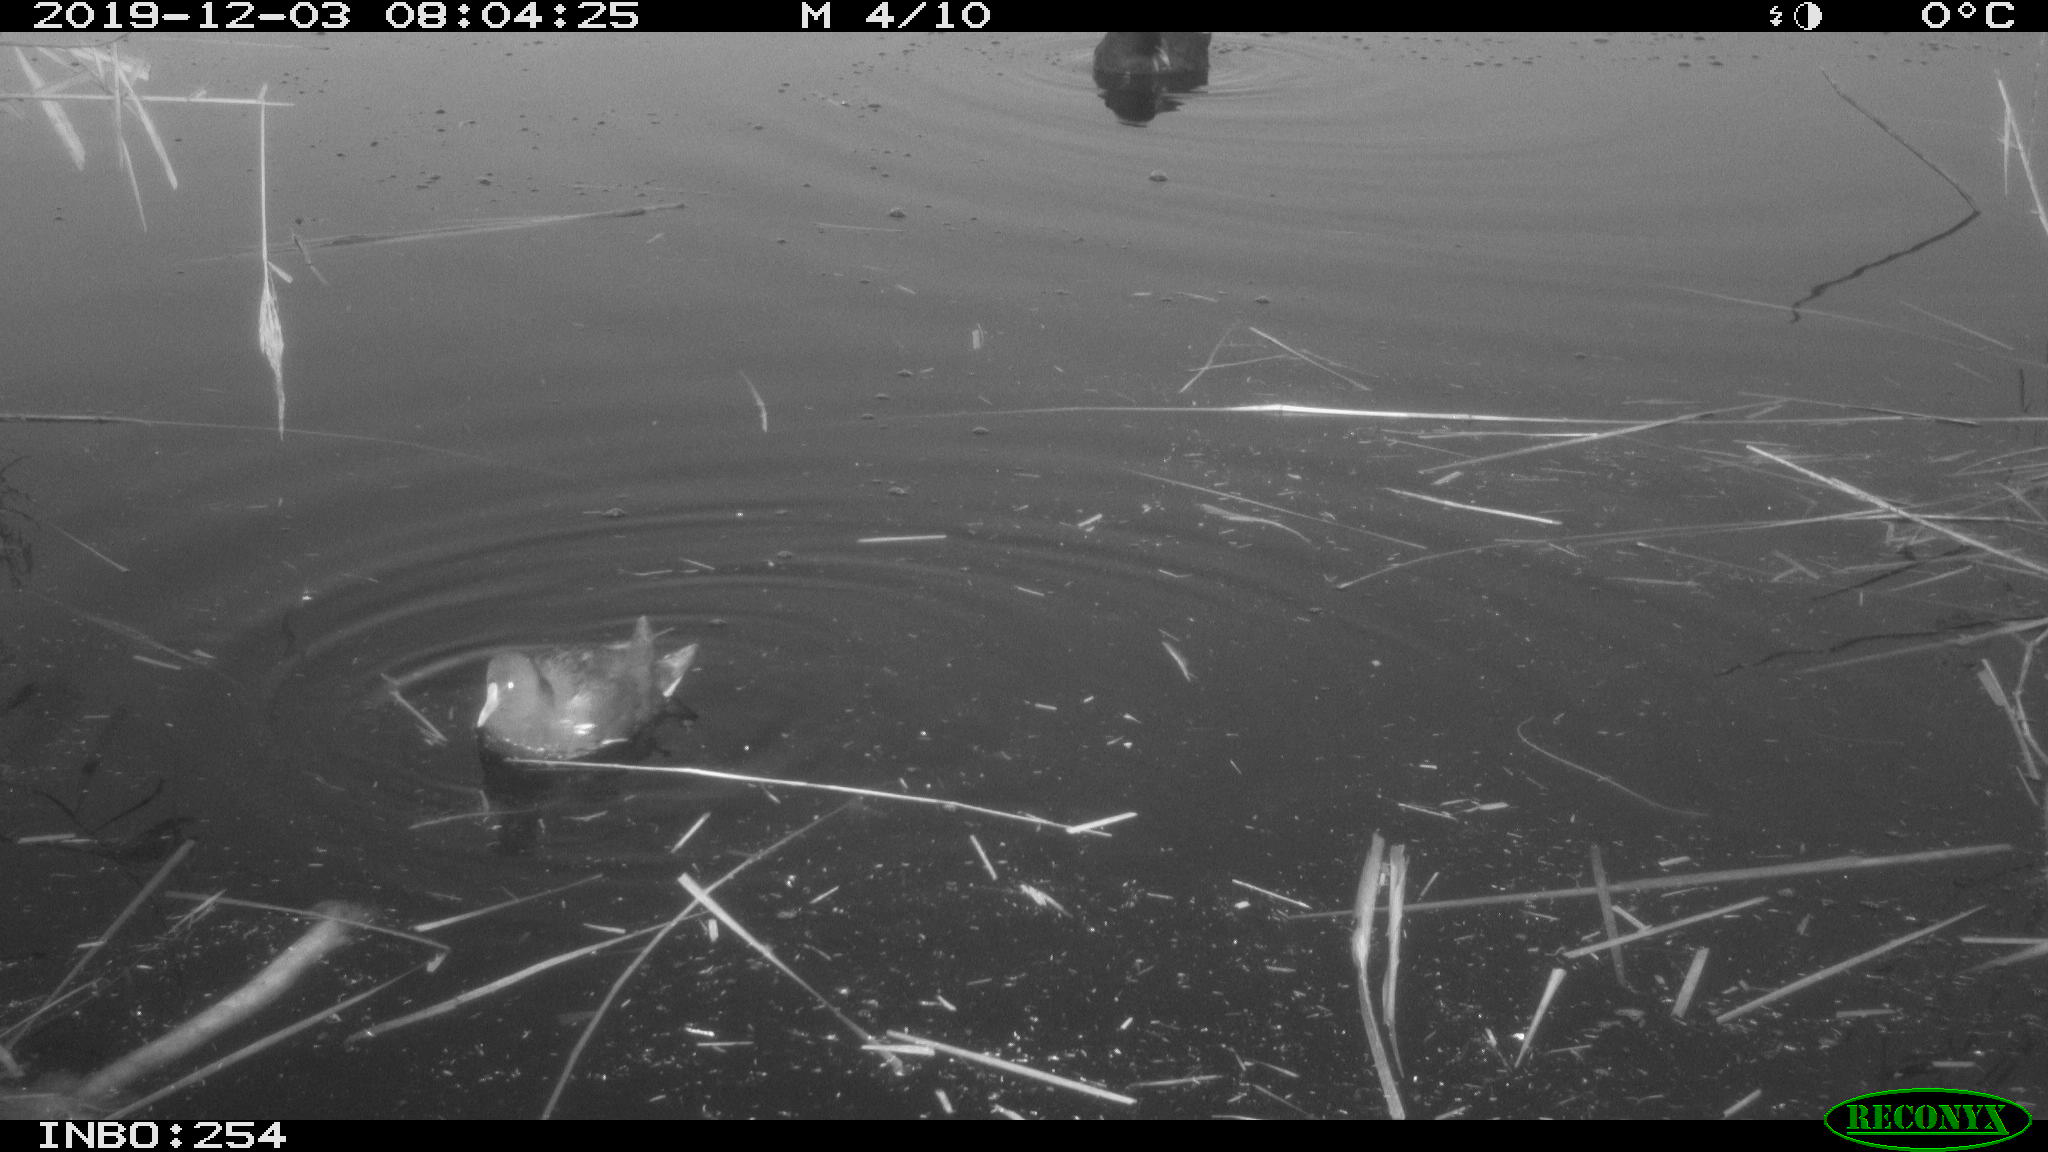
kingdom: Animalia
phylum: Chordata
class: Aves
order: Gruiformes
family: Rallidae
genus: Gallinula
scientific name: Gallinula chloropus
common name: Common moorhen
